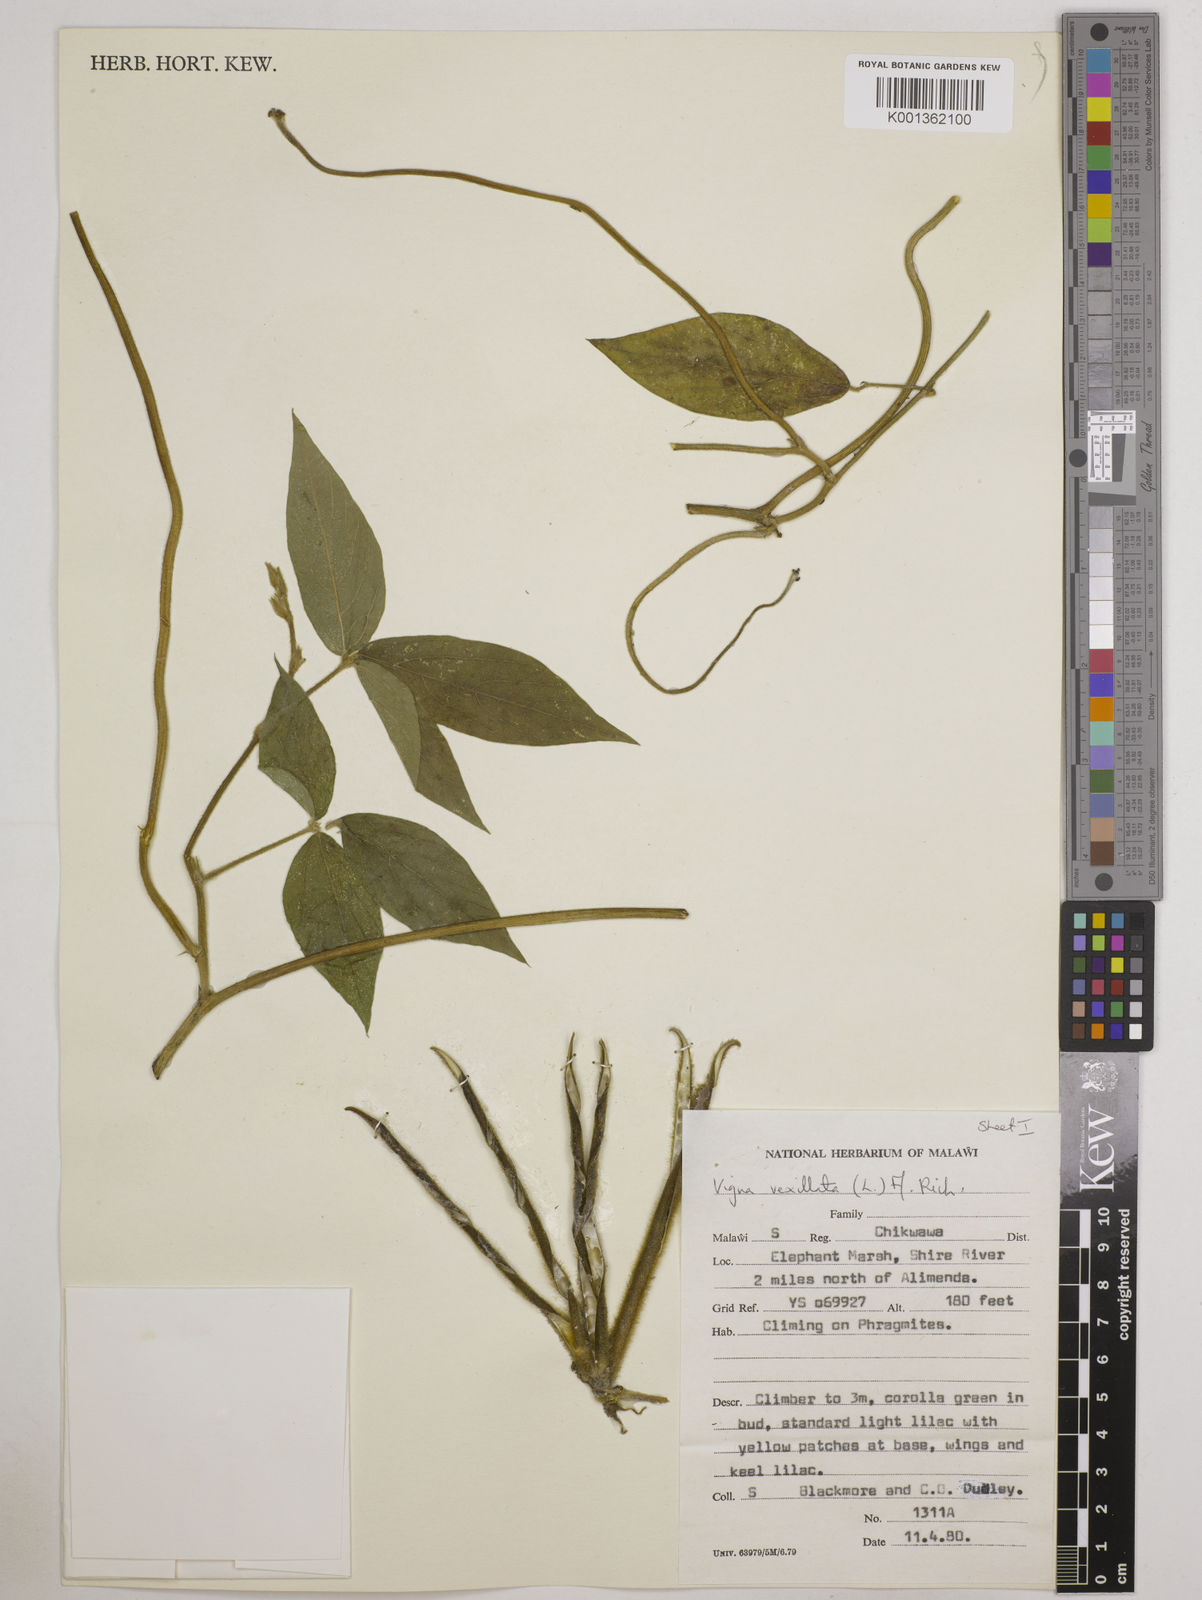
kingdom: Plantae
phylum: Tracheophyta
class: Magnoliopsida
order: Fabales
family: Fabaceae
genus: Vigna
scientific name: Vigna vexillata
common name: Zombi pea
